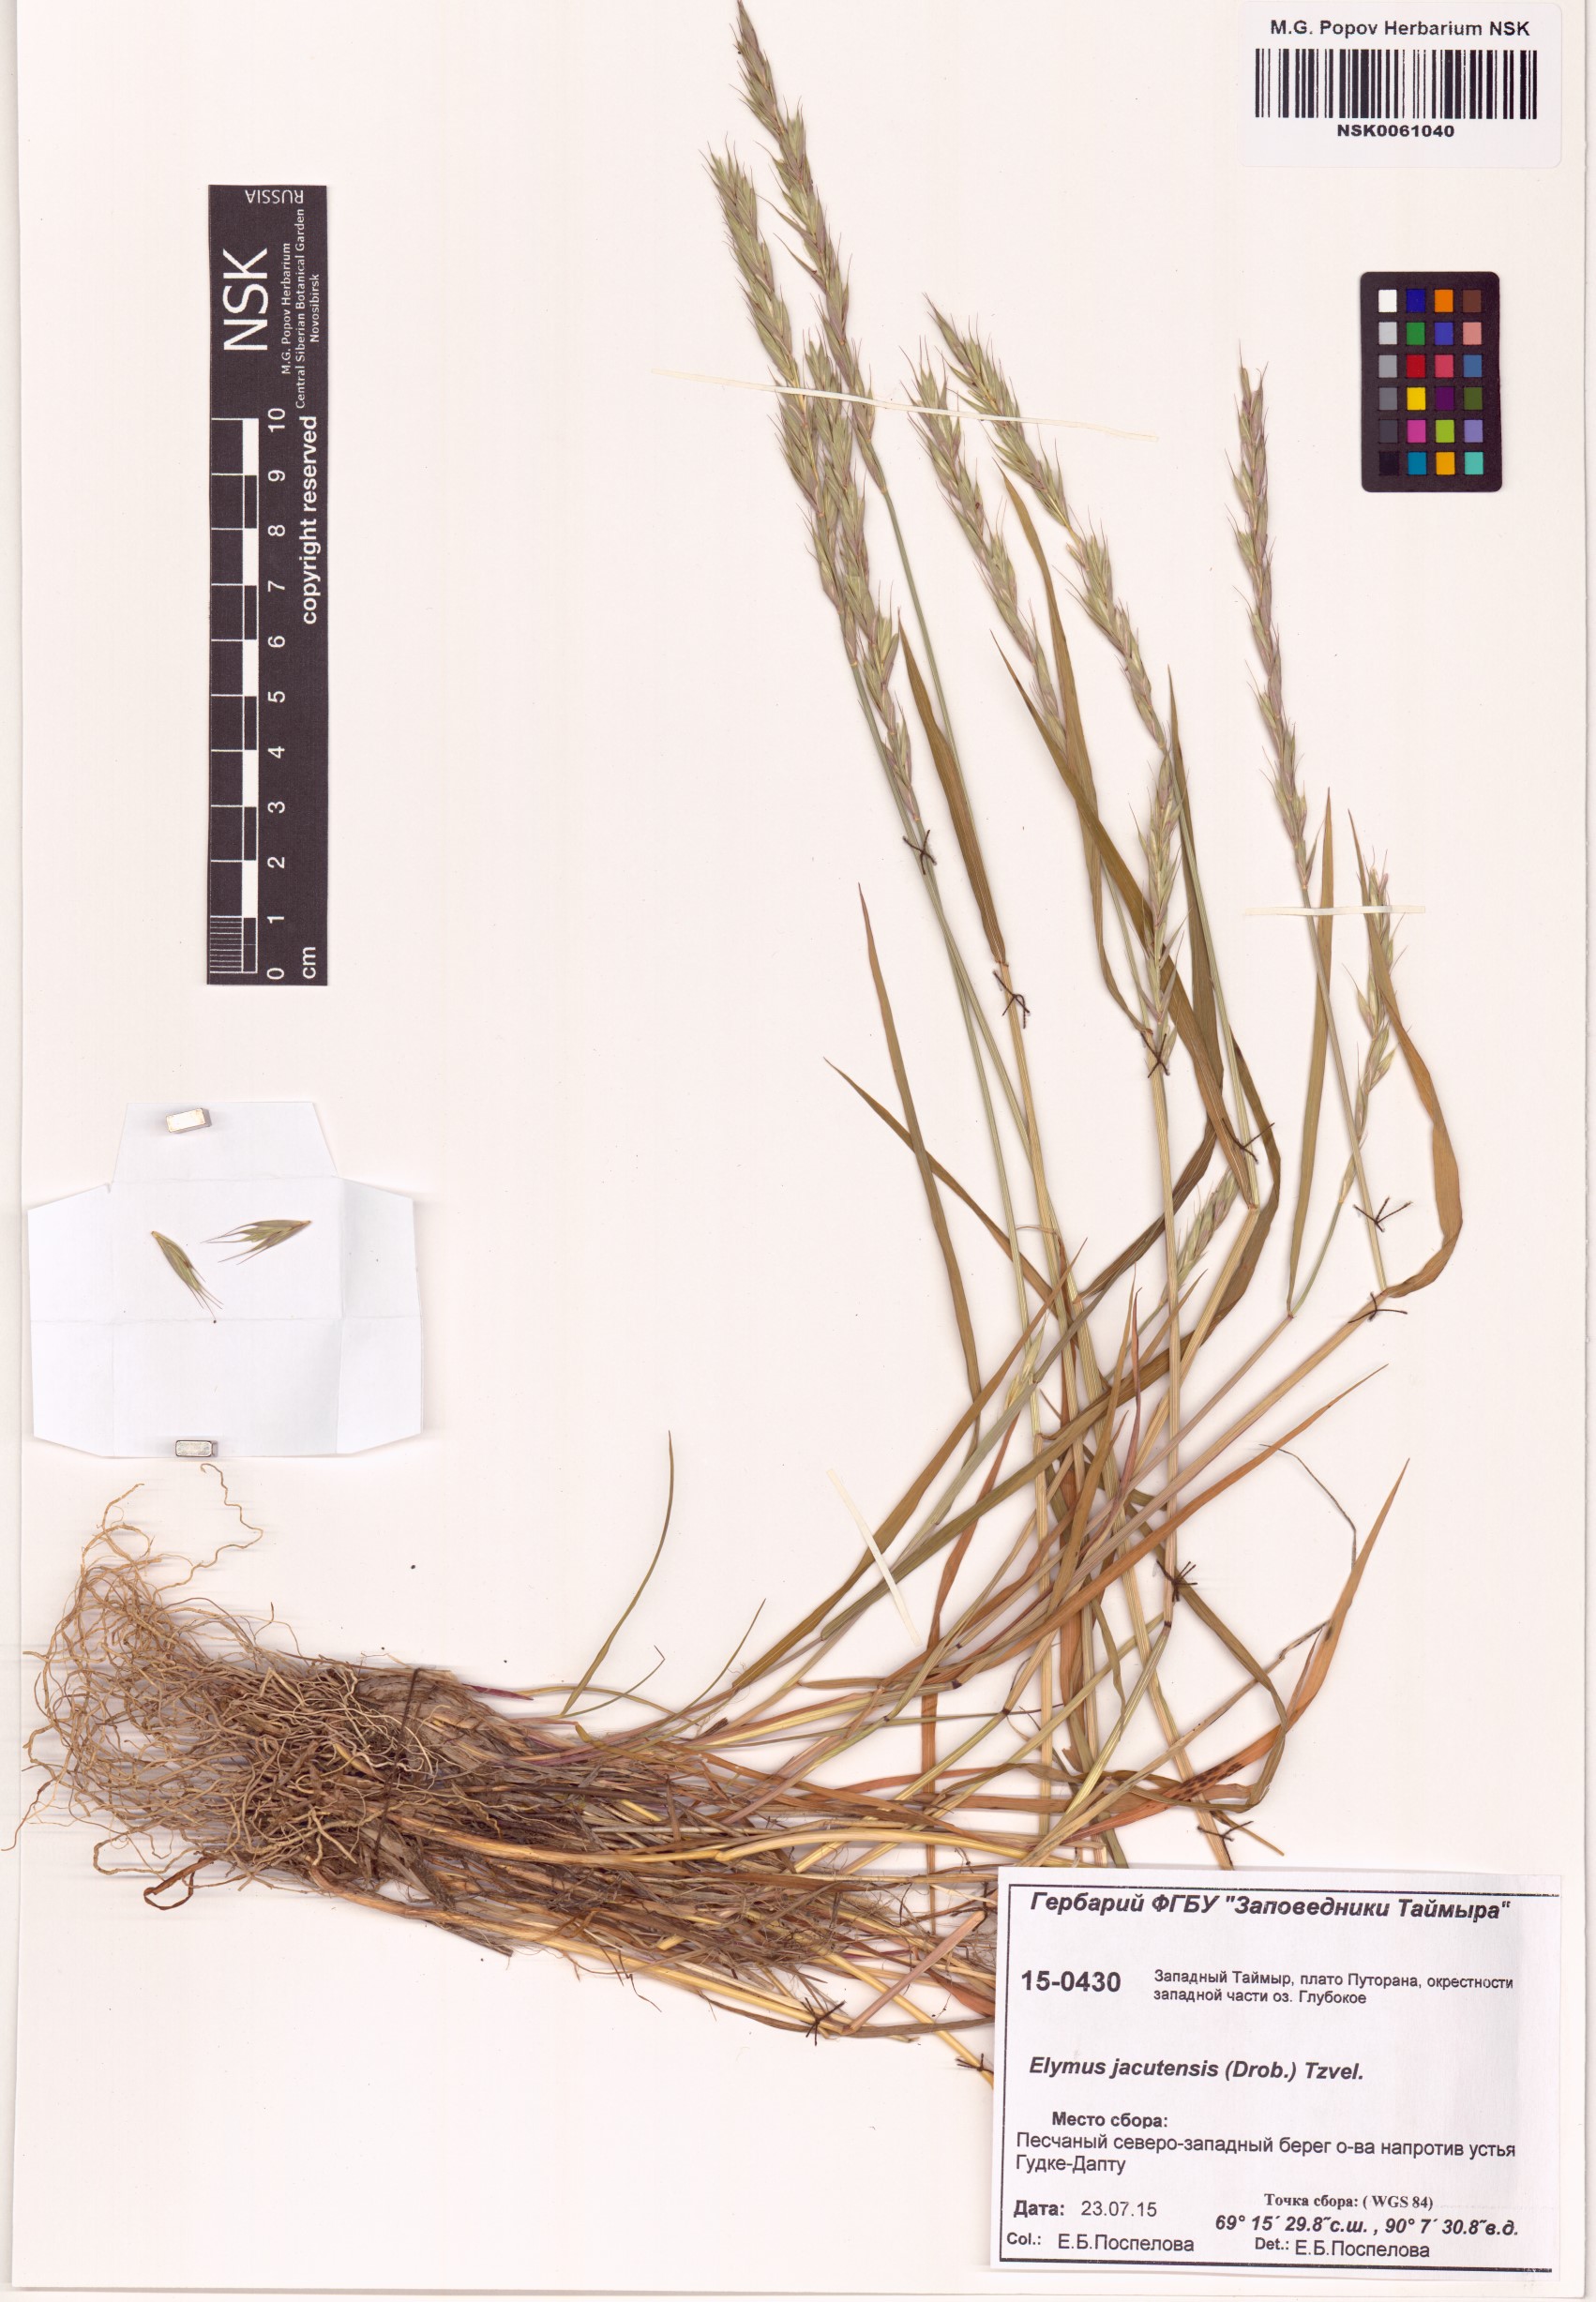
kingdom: Plantae
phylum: Tracheophyta
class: Liliopsida
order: Poales
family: Poaceae
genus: Elymus
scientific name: Elymus jacutensis
